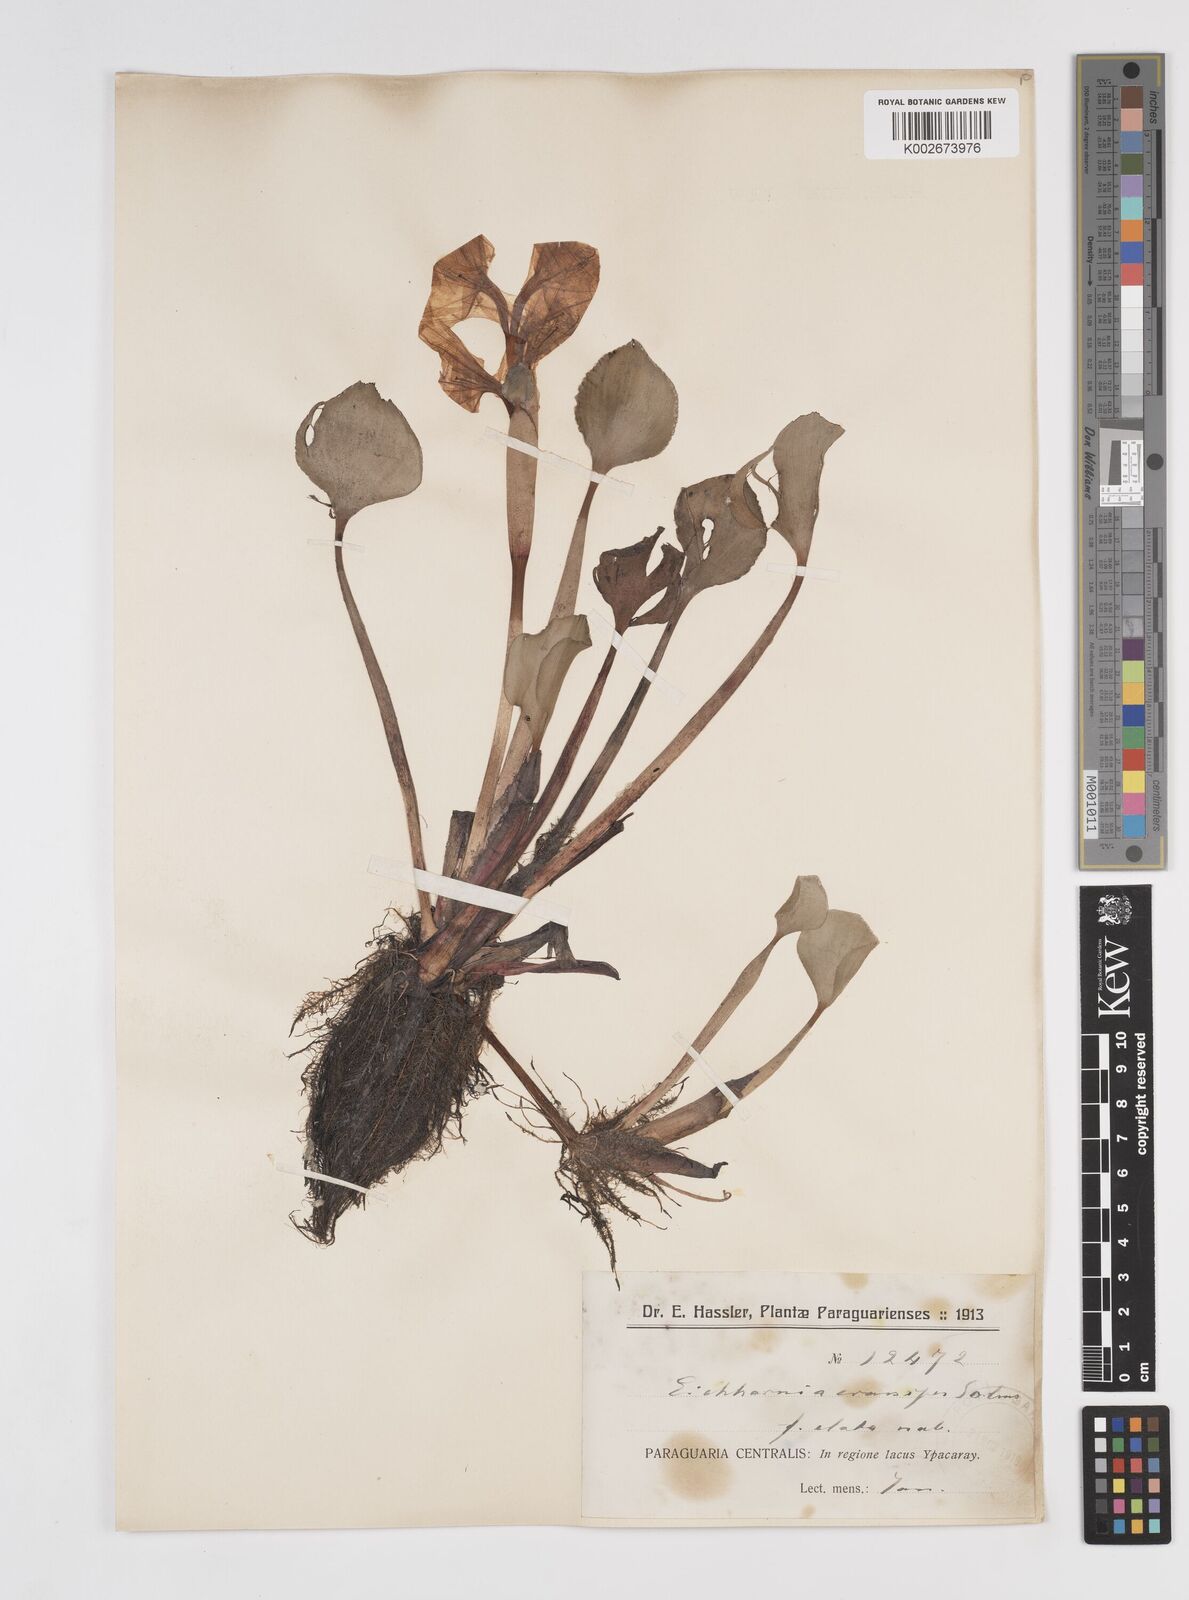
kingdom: Plantae
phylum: Tracheophyta
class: Liliopsida
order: Commelinales
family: Pontederiaceae
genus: Pontederia
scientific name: Pontederia crassipes
